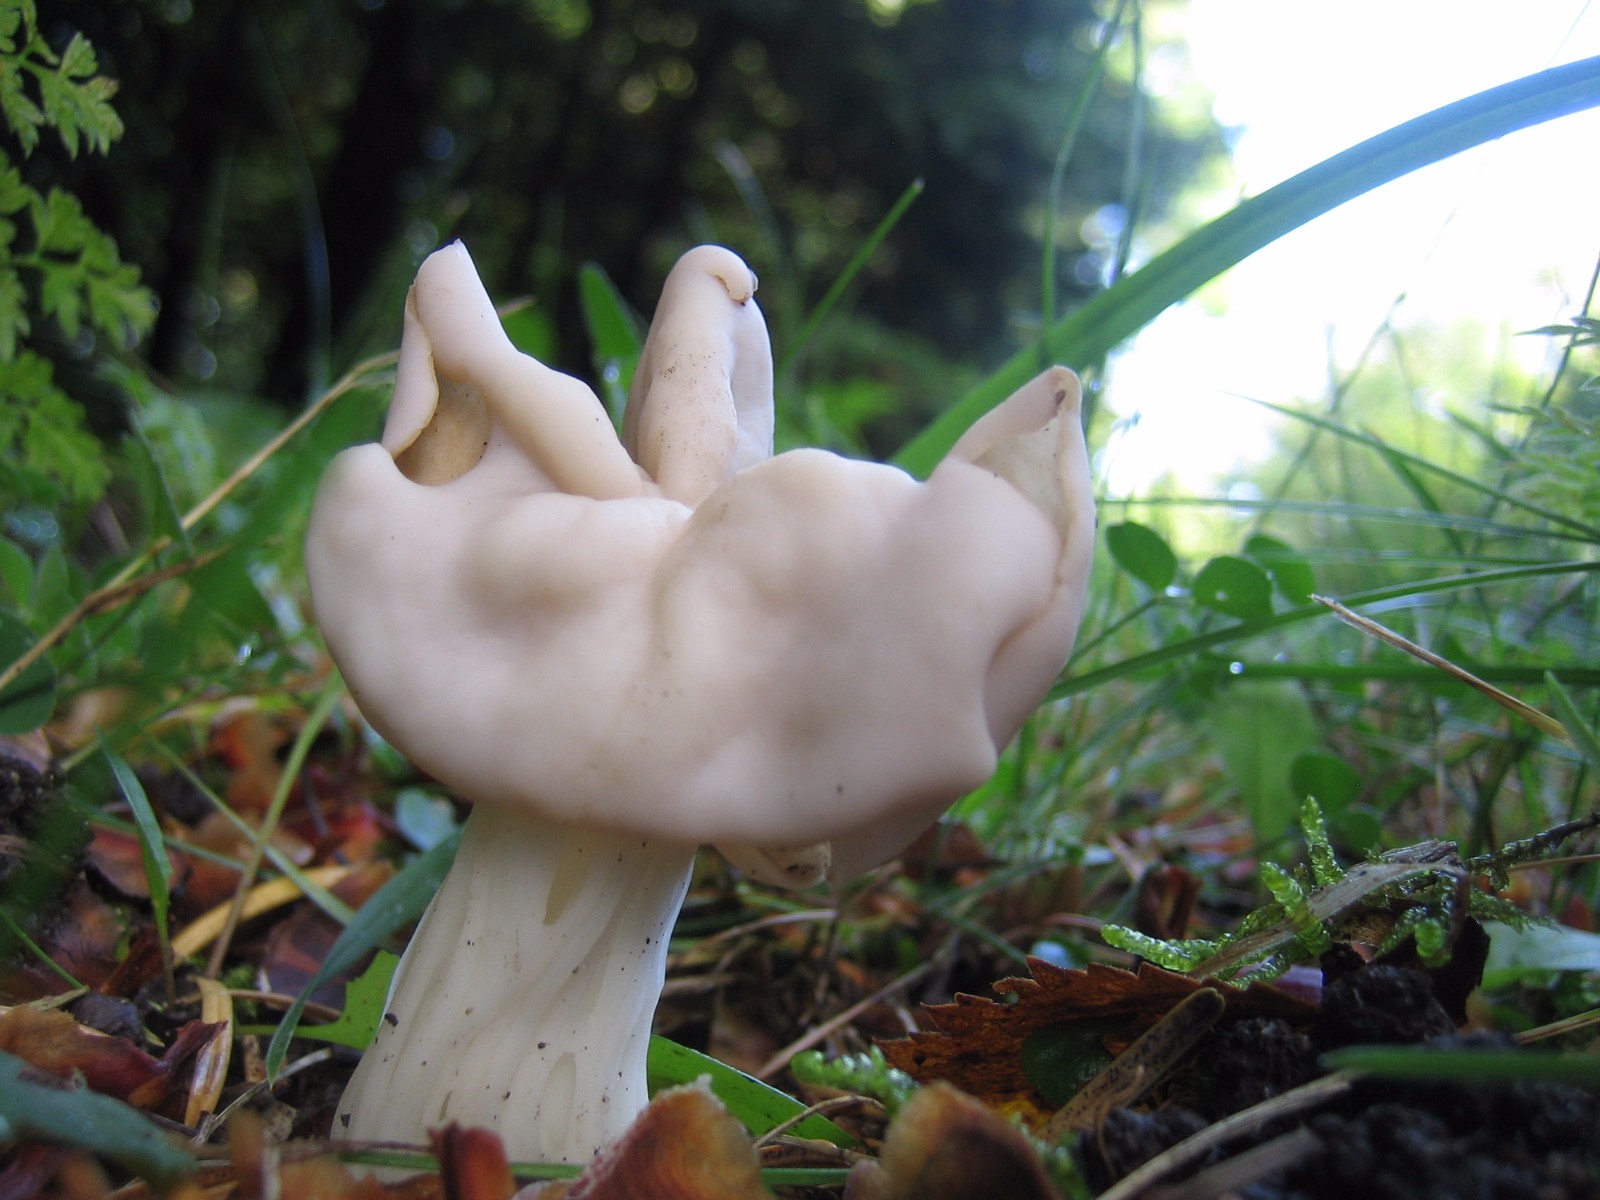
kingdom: Fungi
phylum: Ascomycota
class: Pezizomycetes
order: Pezizales
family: Helvellaceae
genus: Helvella
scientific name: Helvella crispa
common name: kruset foldhat
